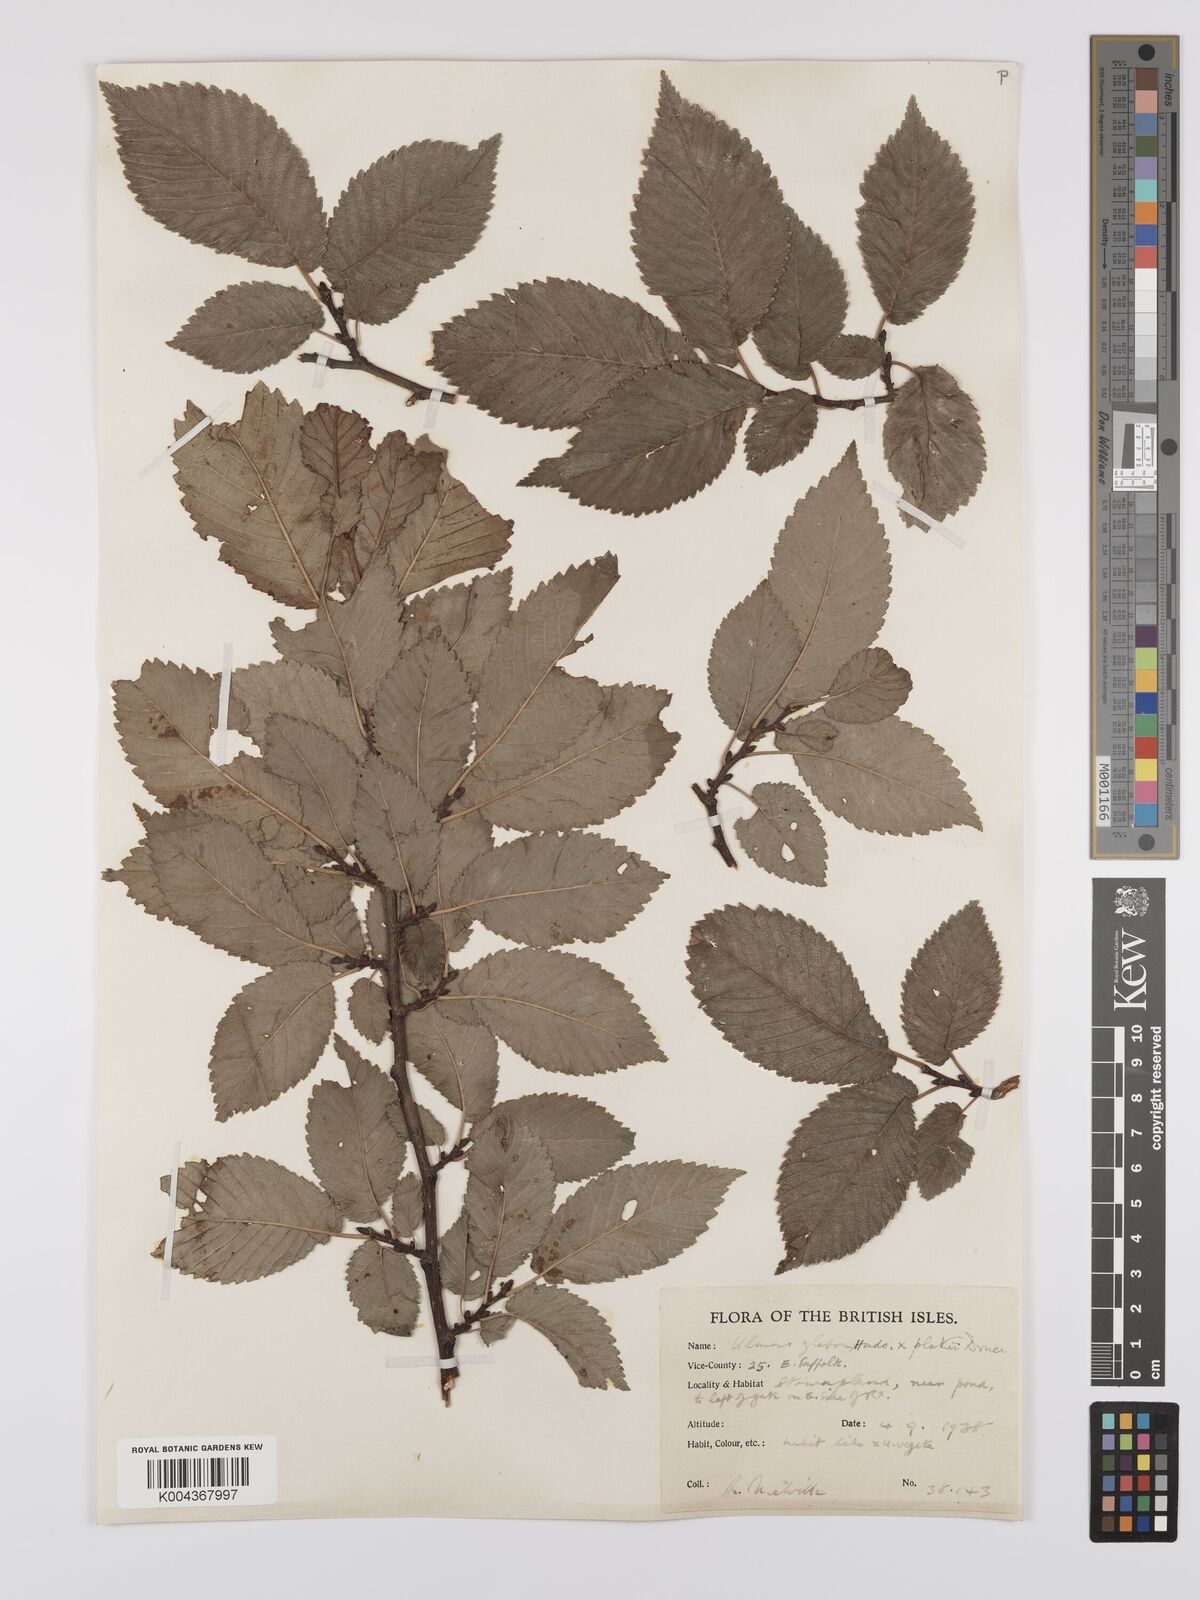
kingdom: Plantae
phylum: Tracheophyta
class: Magnoliopsida
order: Rosales
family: Ulmaceae
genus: Ulmus
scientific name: Ulmus
